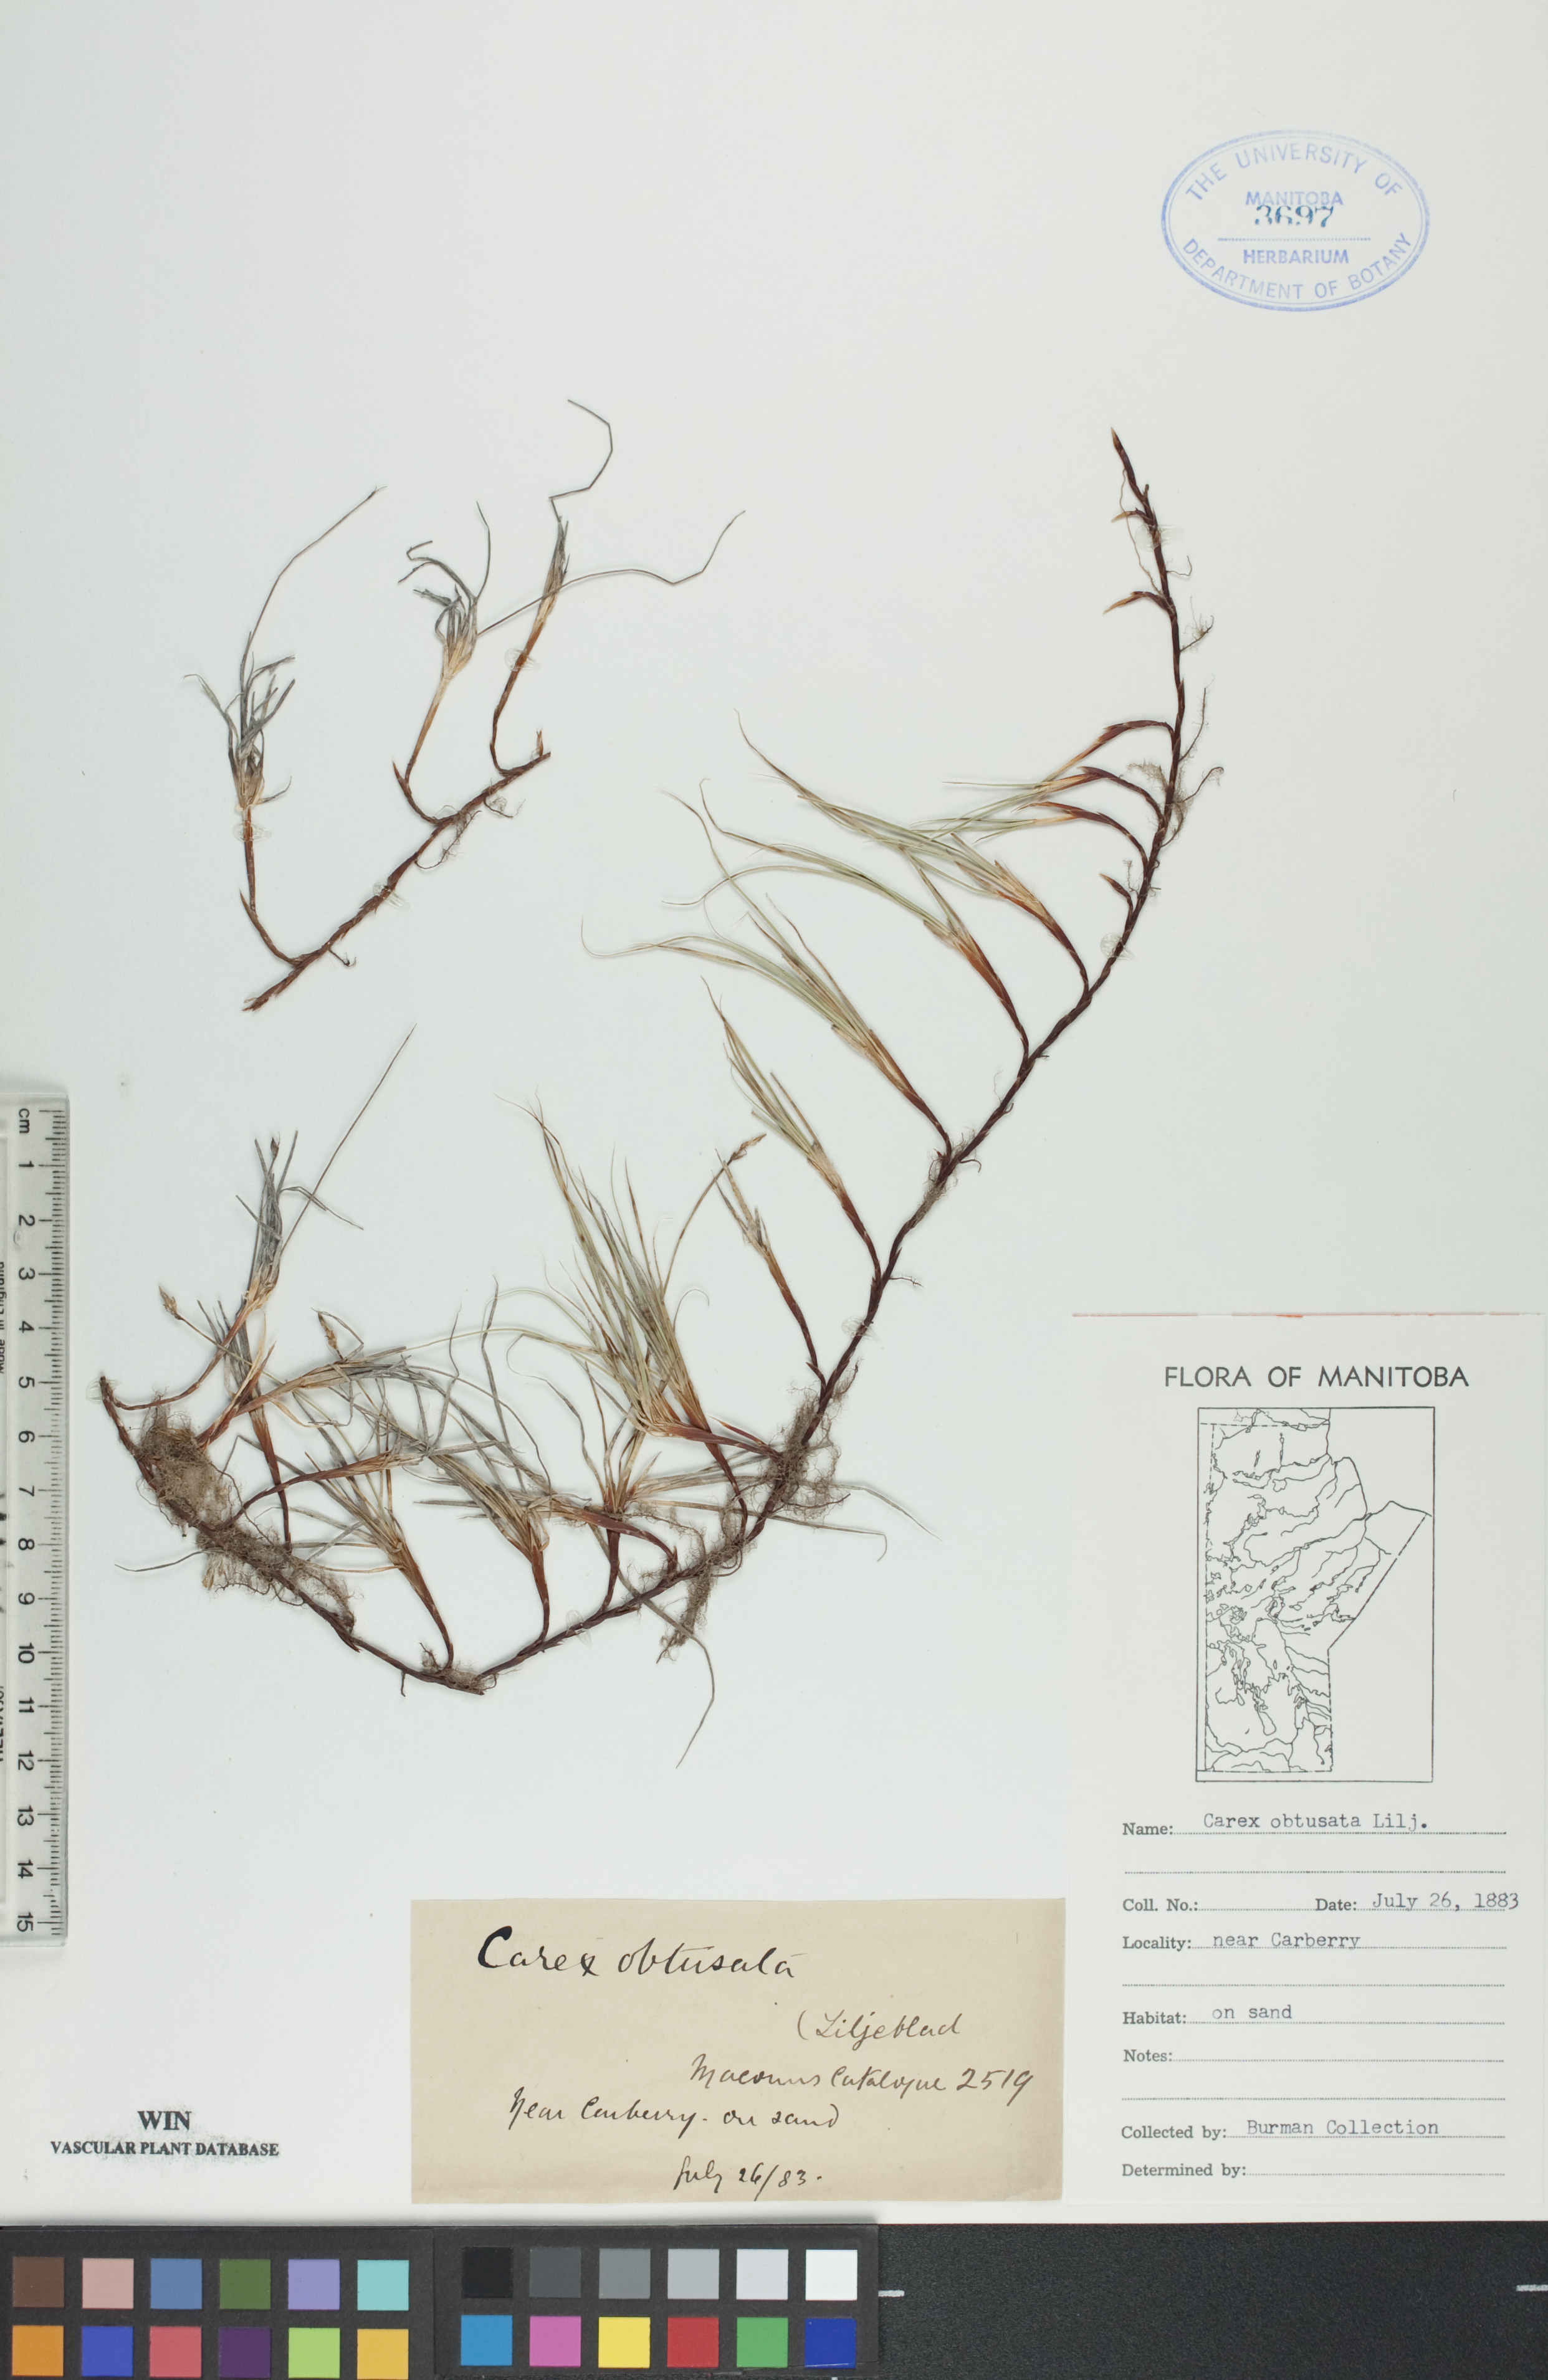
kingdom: Plantae
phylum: Tracheophyta
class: Liliopsida
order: Poales
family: Cyperaceae
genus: Carex
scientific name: Carex obtusata
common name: Blunt sedge
